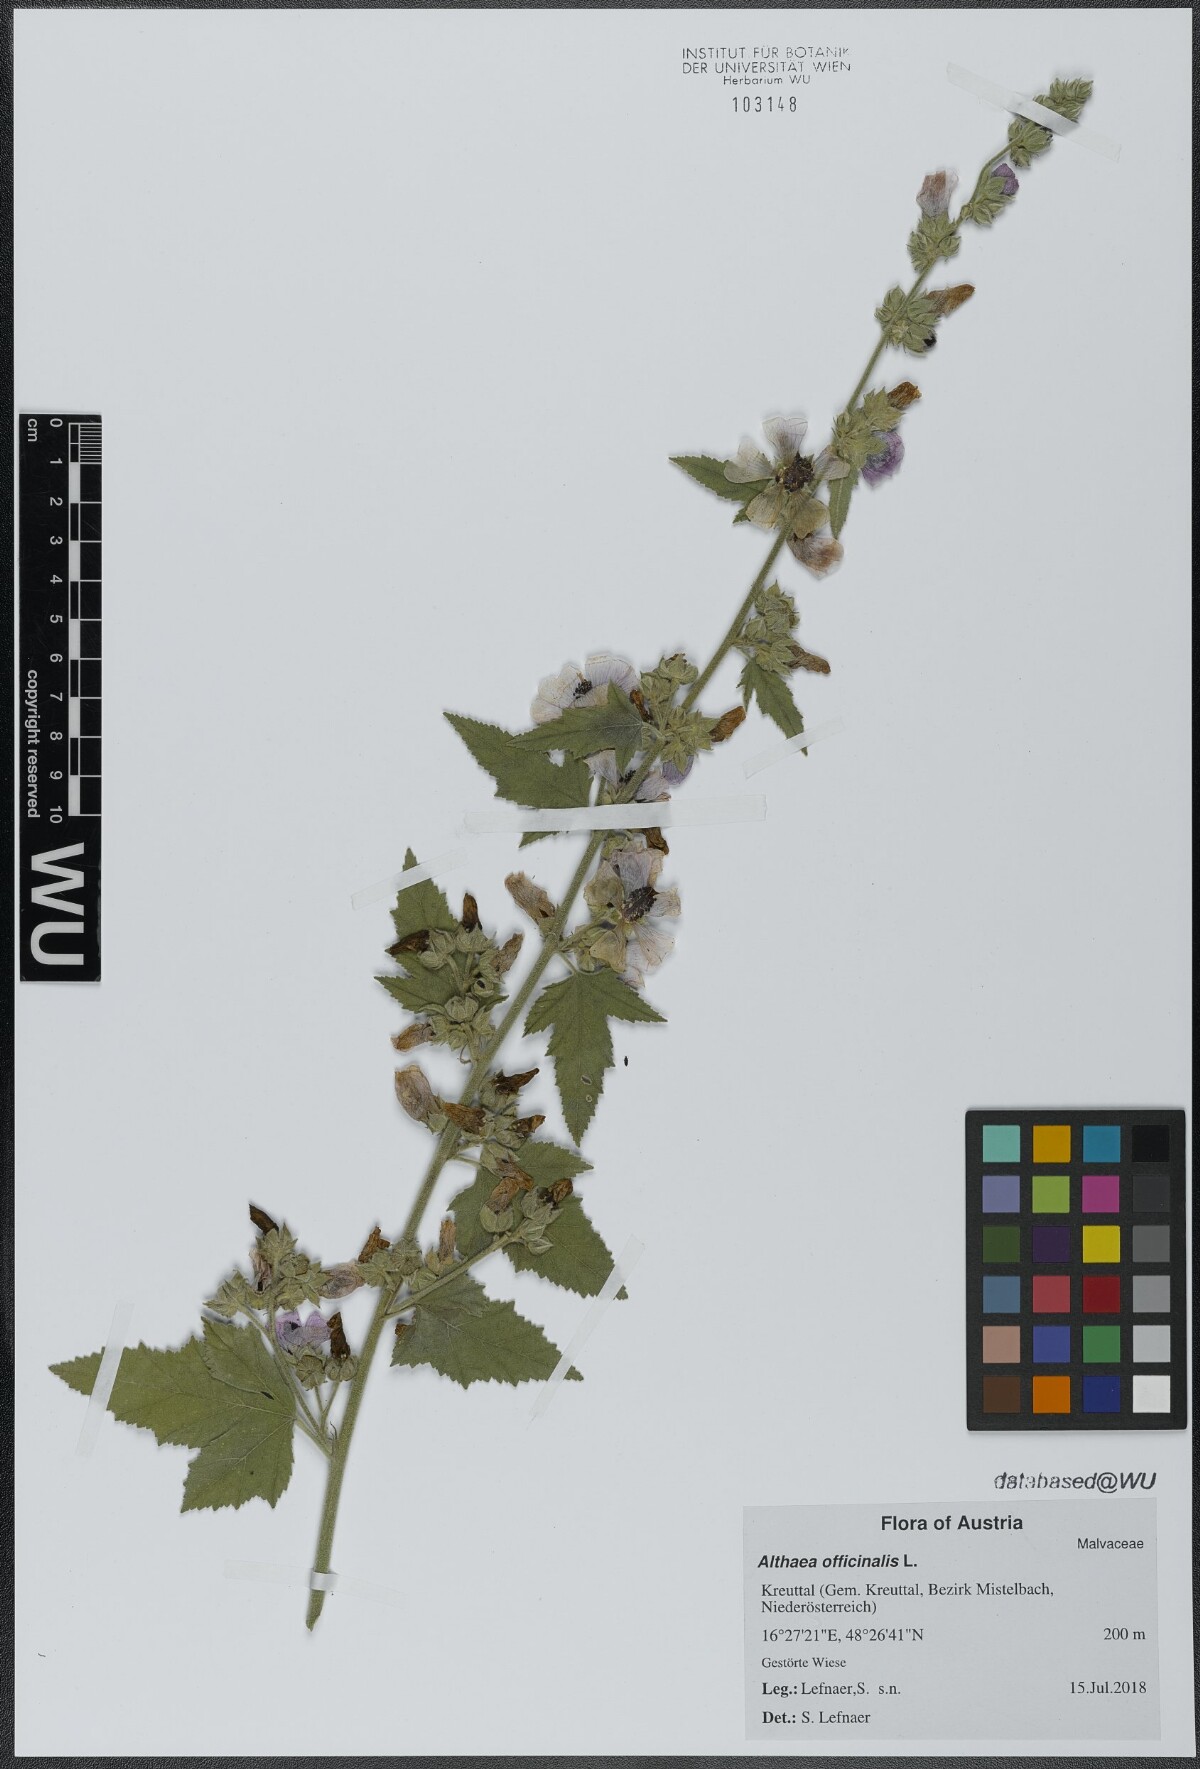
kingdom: Plantae
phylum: Tracheophyta
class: Magnoliopsida
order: Malvales
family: Malvaceae
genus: Althaea
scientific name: Althaea taurinensis
